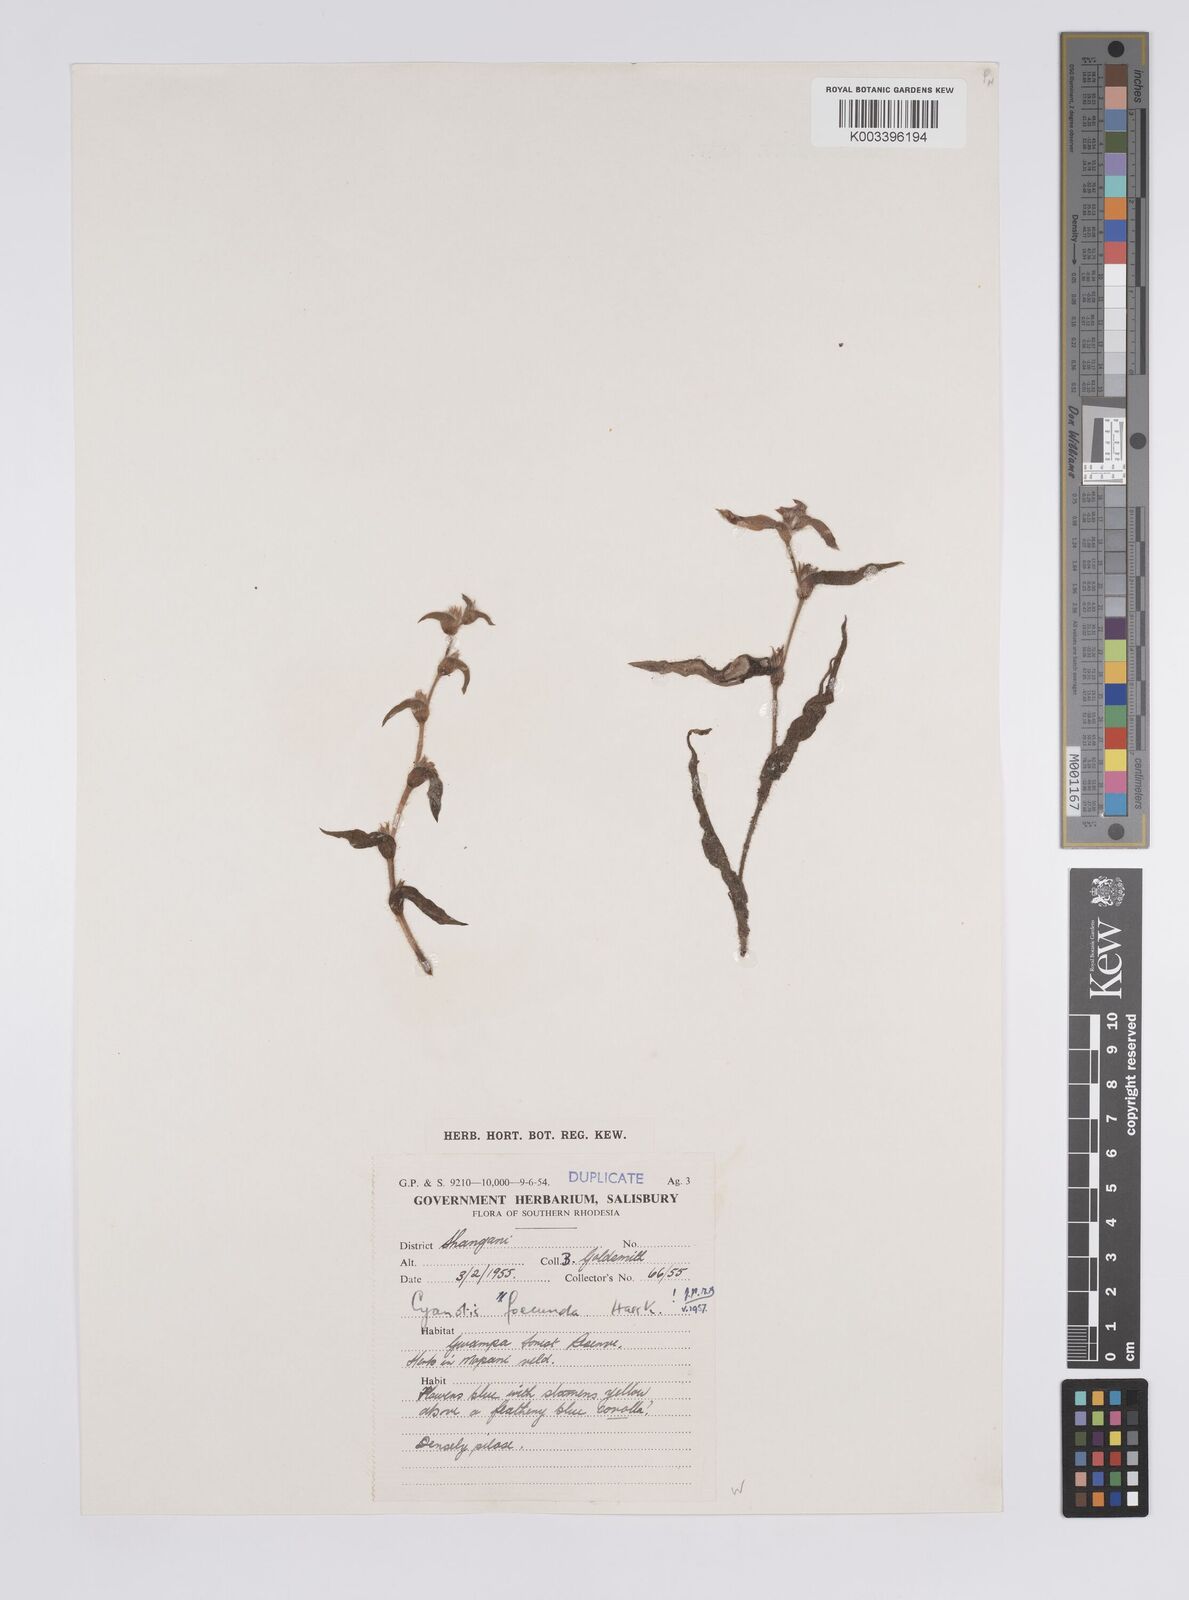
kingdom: Plantae
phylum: Tracheophyta
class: Liliopsida
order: Commelinales
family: Commelinaceae
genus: Cyanotis
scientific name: Cyanotis foecunda
